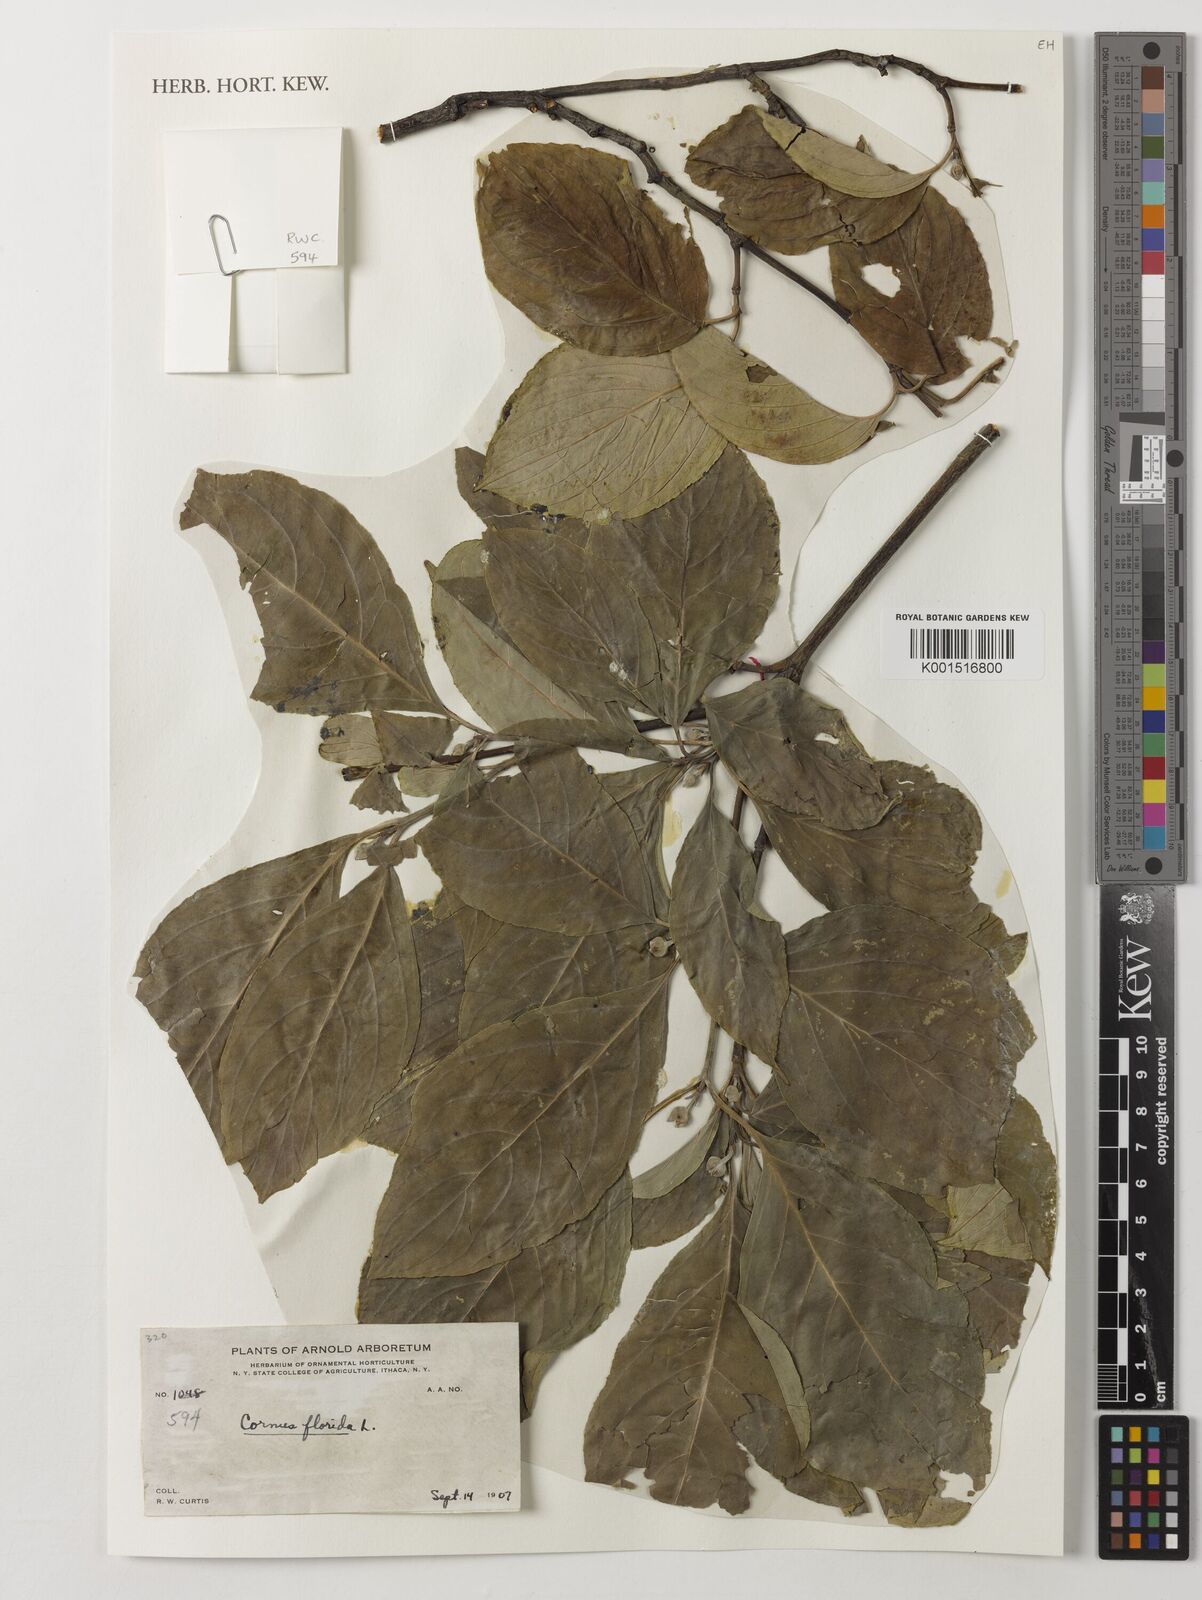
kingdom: Plantae
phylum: Tracheophyta
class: Magnoliopsida
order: Cornales
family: Cornaceae
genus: Cornus
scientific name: Cornus florida
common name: Flowering dogwood
